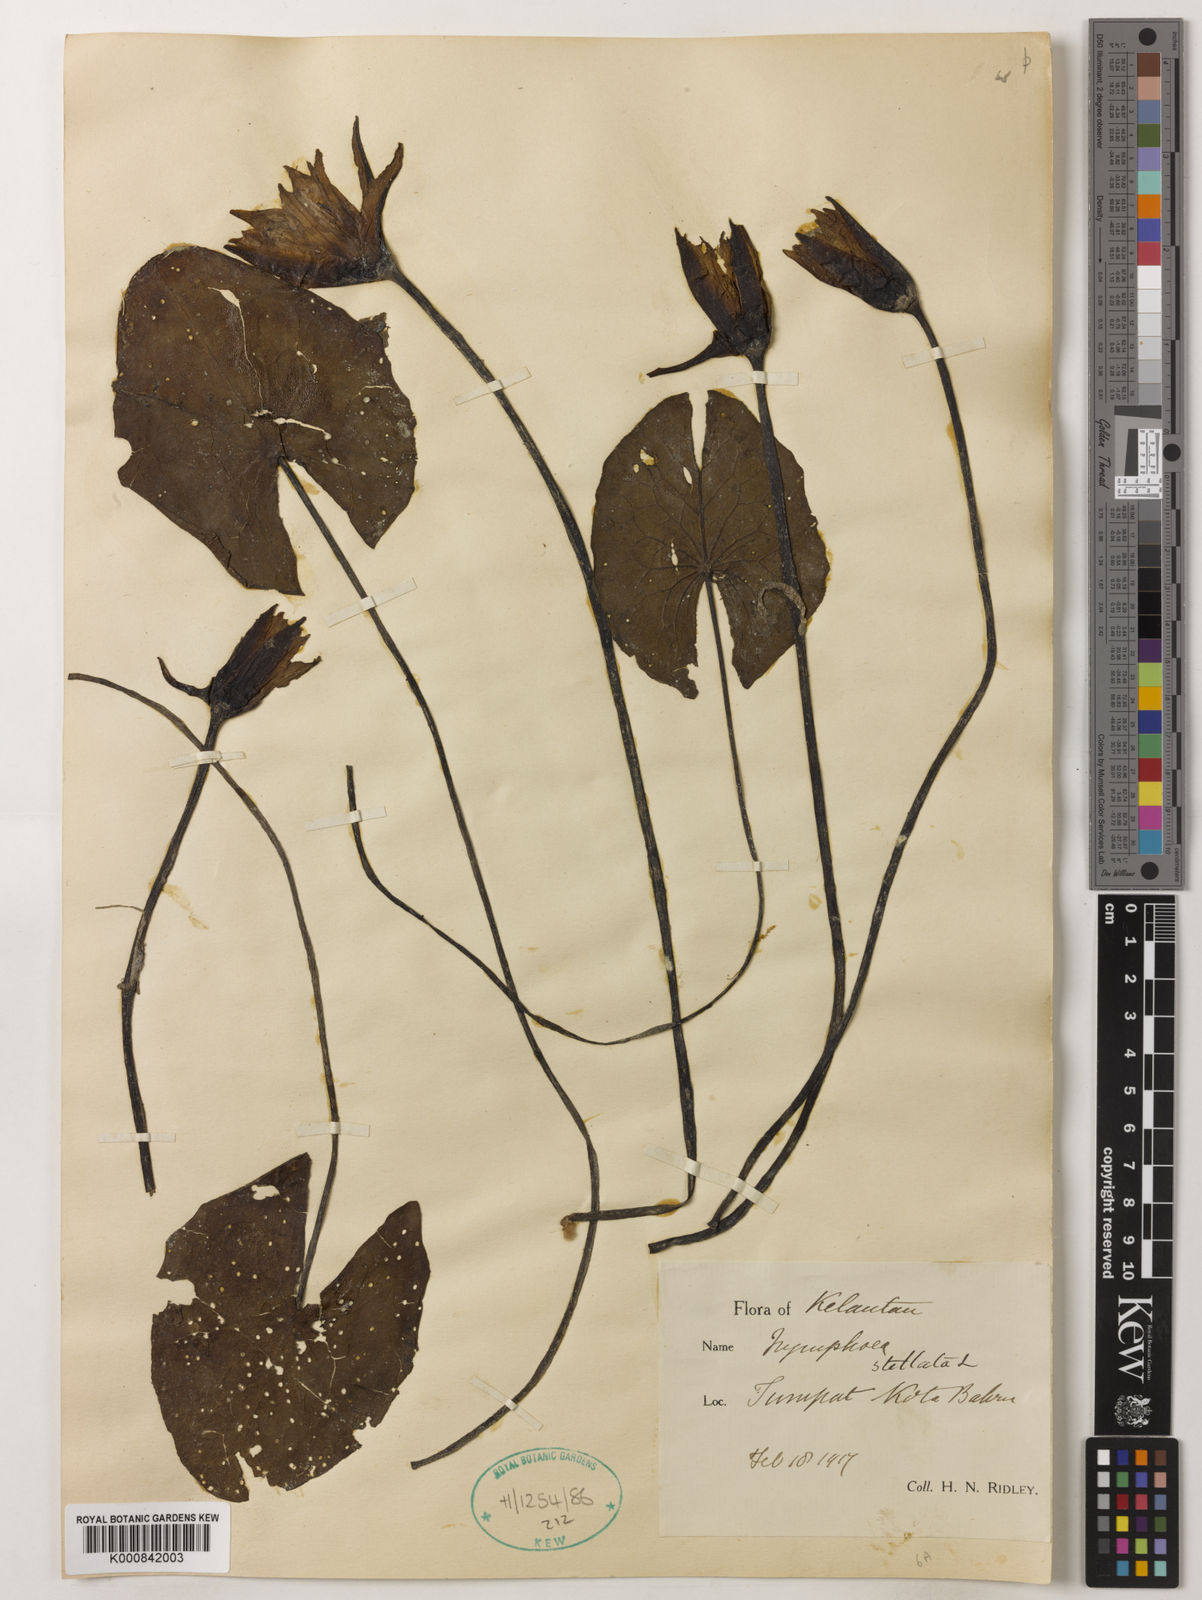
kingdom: Plantae
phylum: Tracheophyta
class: Magnoliopsida
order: Nymphaeales
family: Nymphaeaceae
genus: Nymphaea
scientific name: Nymphaea nouchali
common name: Blue lotus
